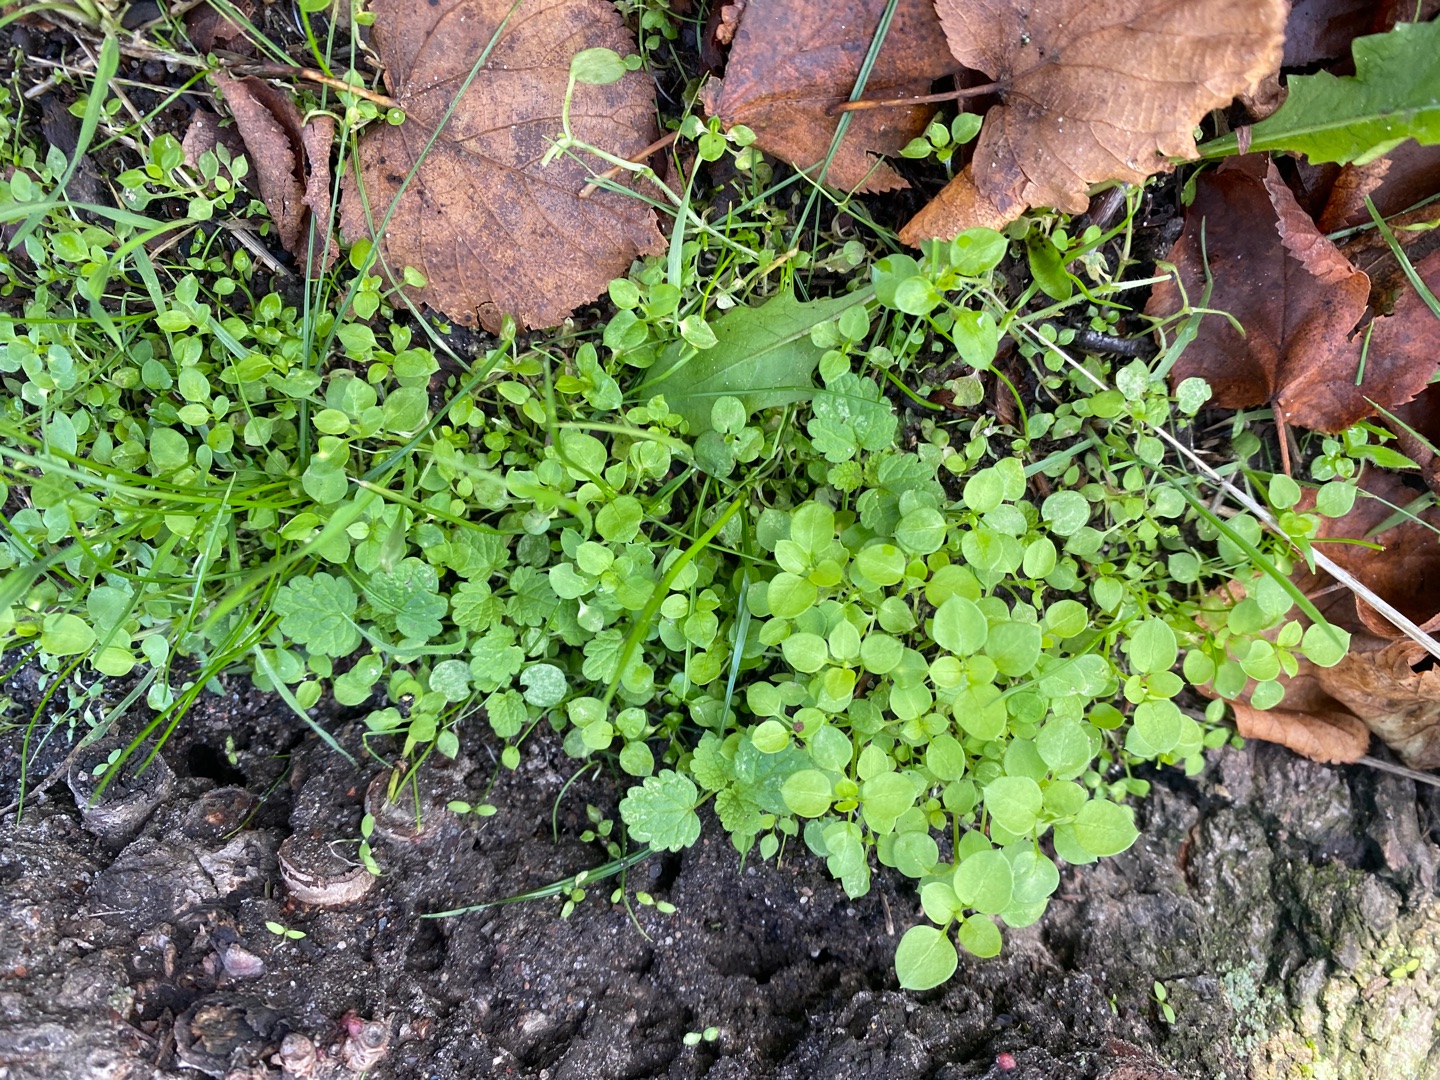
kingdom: Plantae
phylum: Tracheophyta
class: Magnoliopsida
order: Caryophyllales
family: Caryophyllaceae
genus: Stellaria
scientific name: Stellaria media
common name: Almindelig fuglegræs
